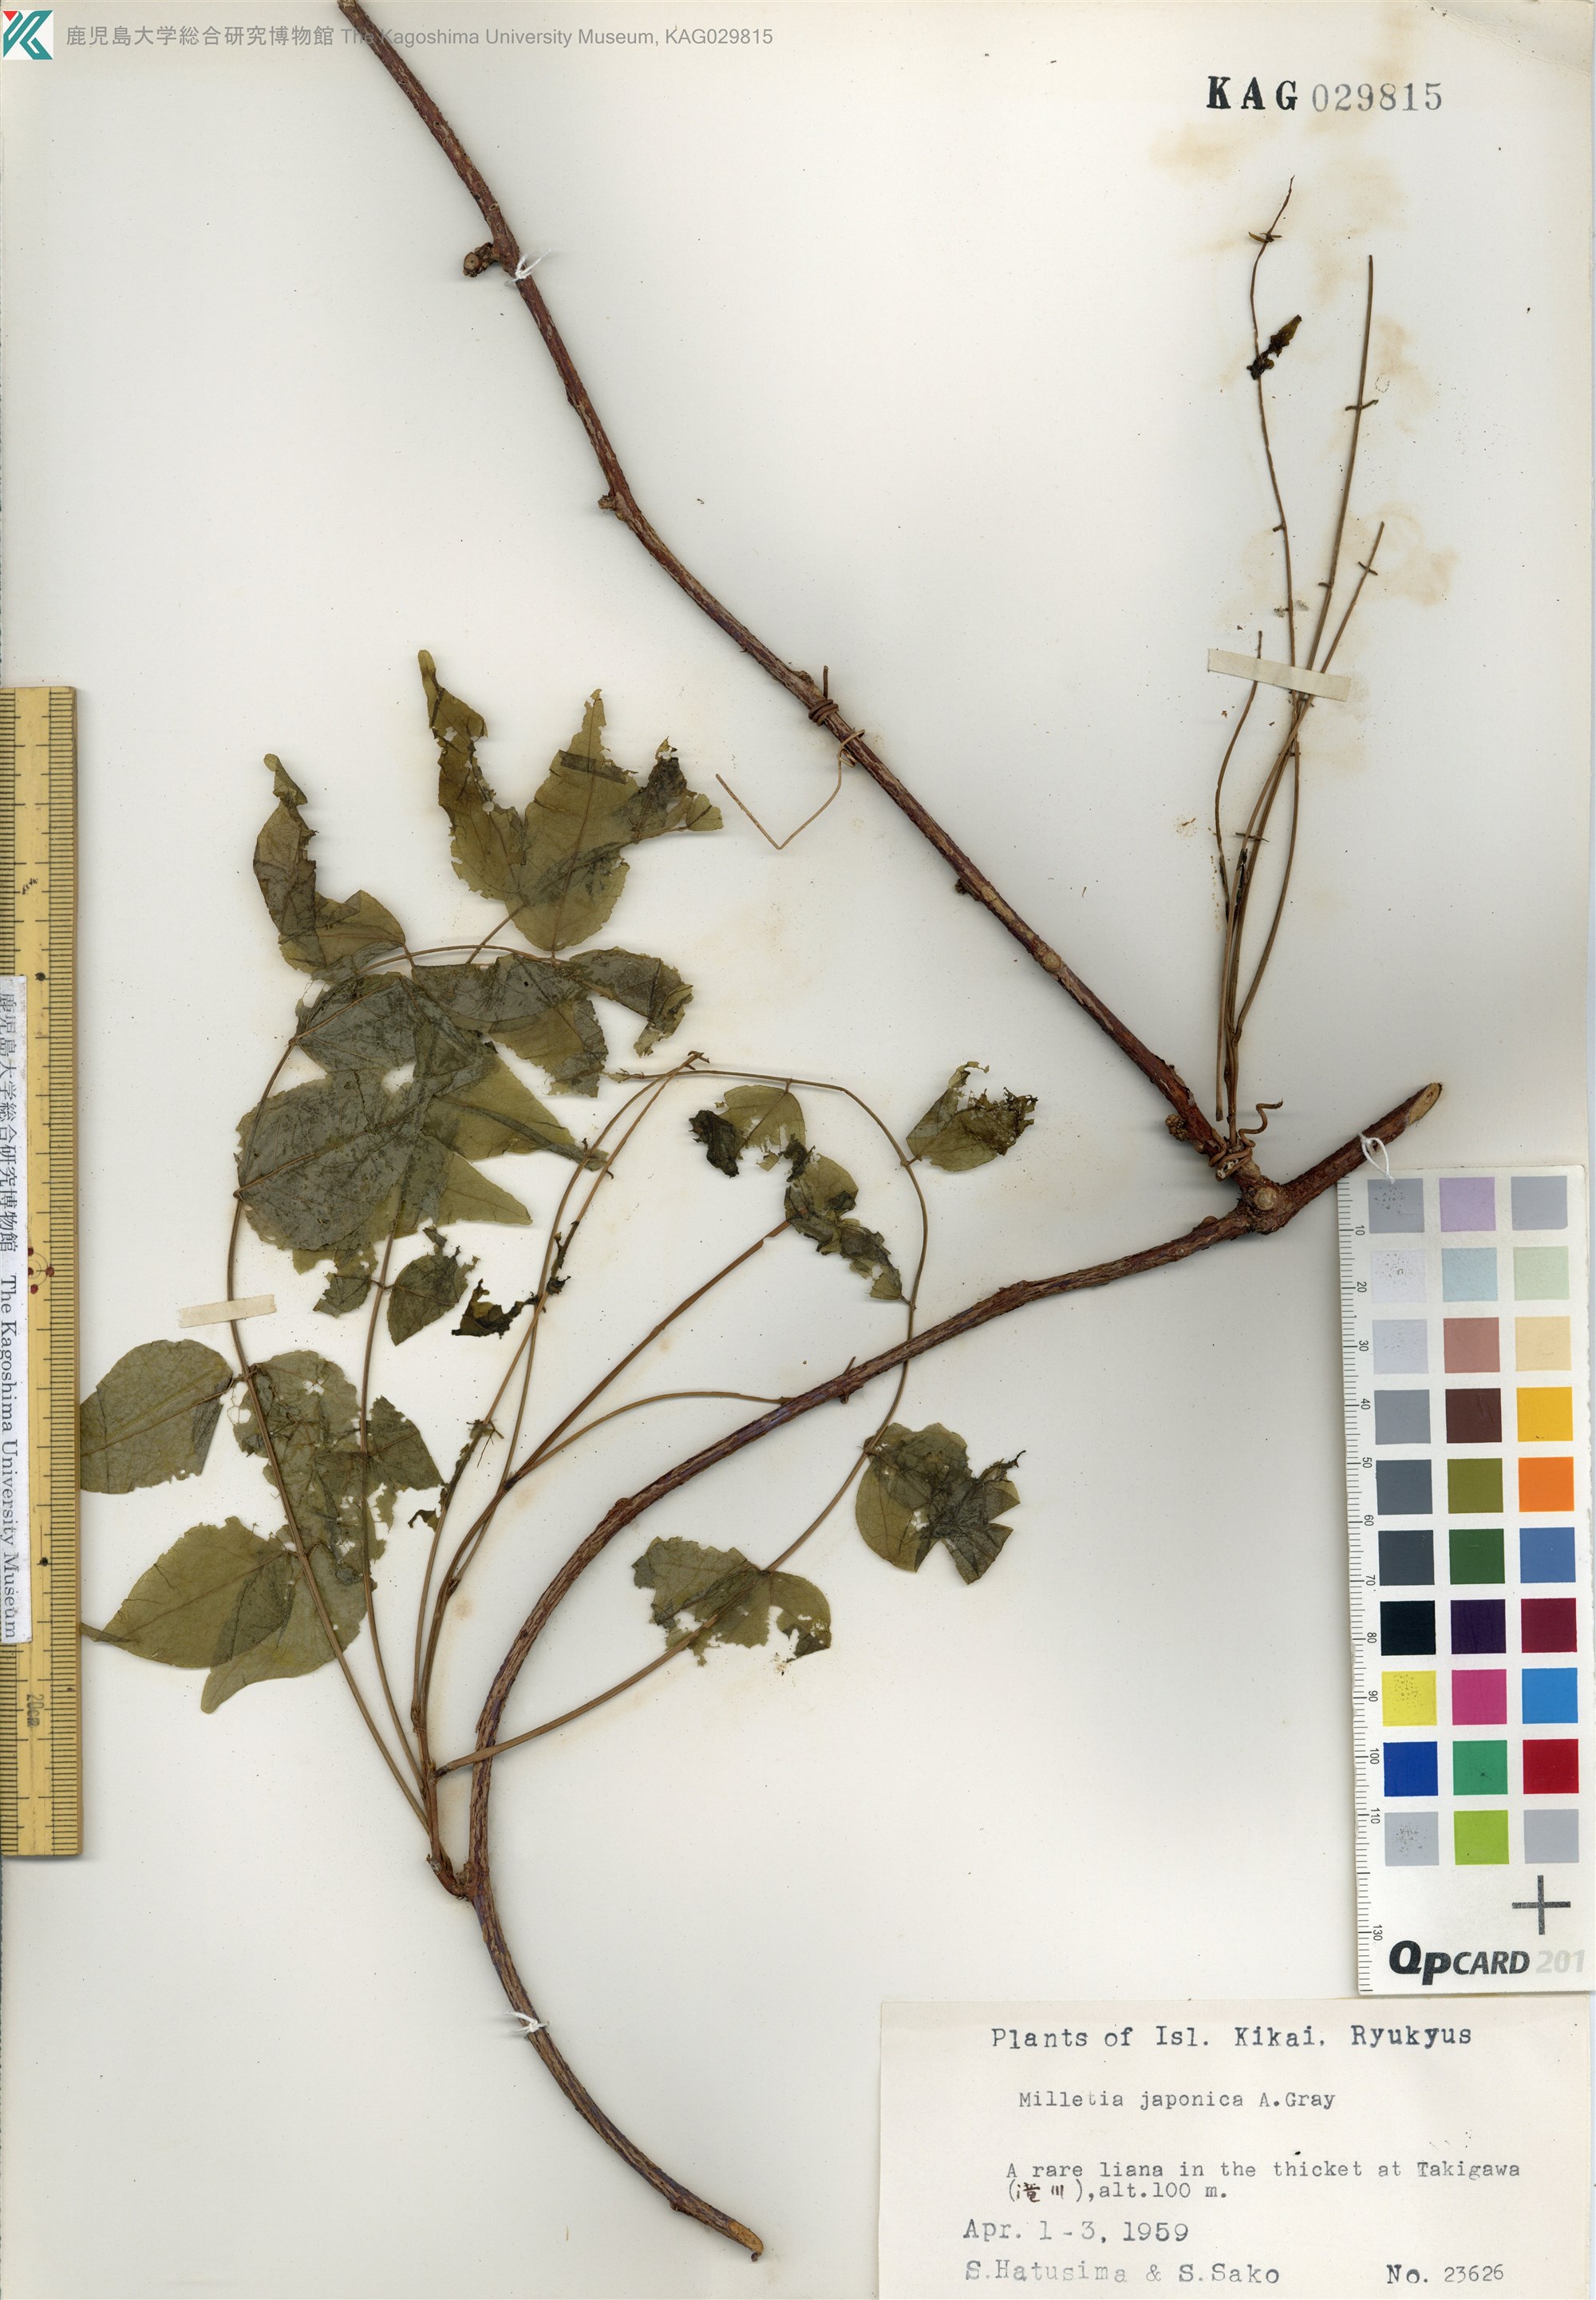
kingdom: Plantae
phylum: Tracheophyta
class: Magnoliopsida
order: Fabales
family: Fabaceae
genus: Wisteriopsis
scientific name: Wisteriopsis japonica
